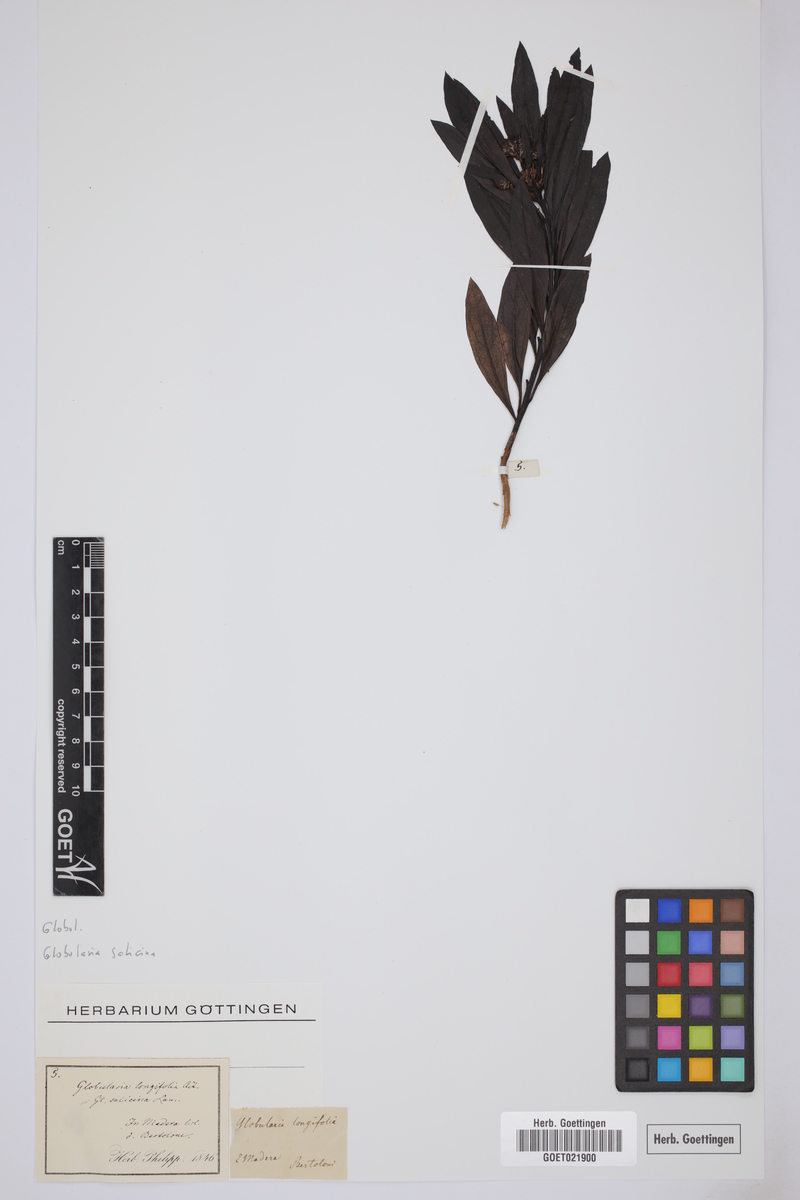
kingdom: Plantae
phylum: Tracheophyta
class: Magnoliopsida
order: Lamiales
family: Plantaginaceae
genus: Globularia
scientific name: Globularia salicina
